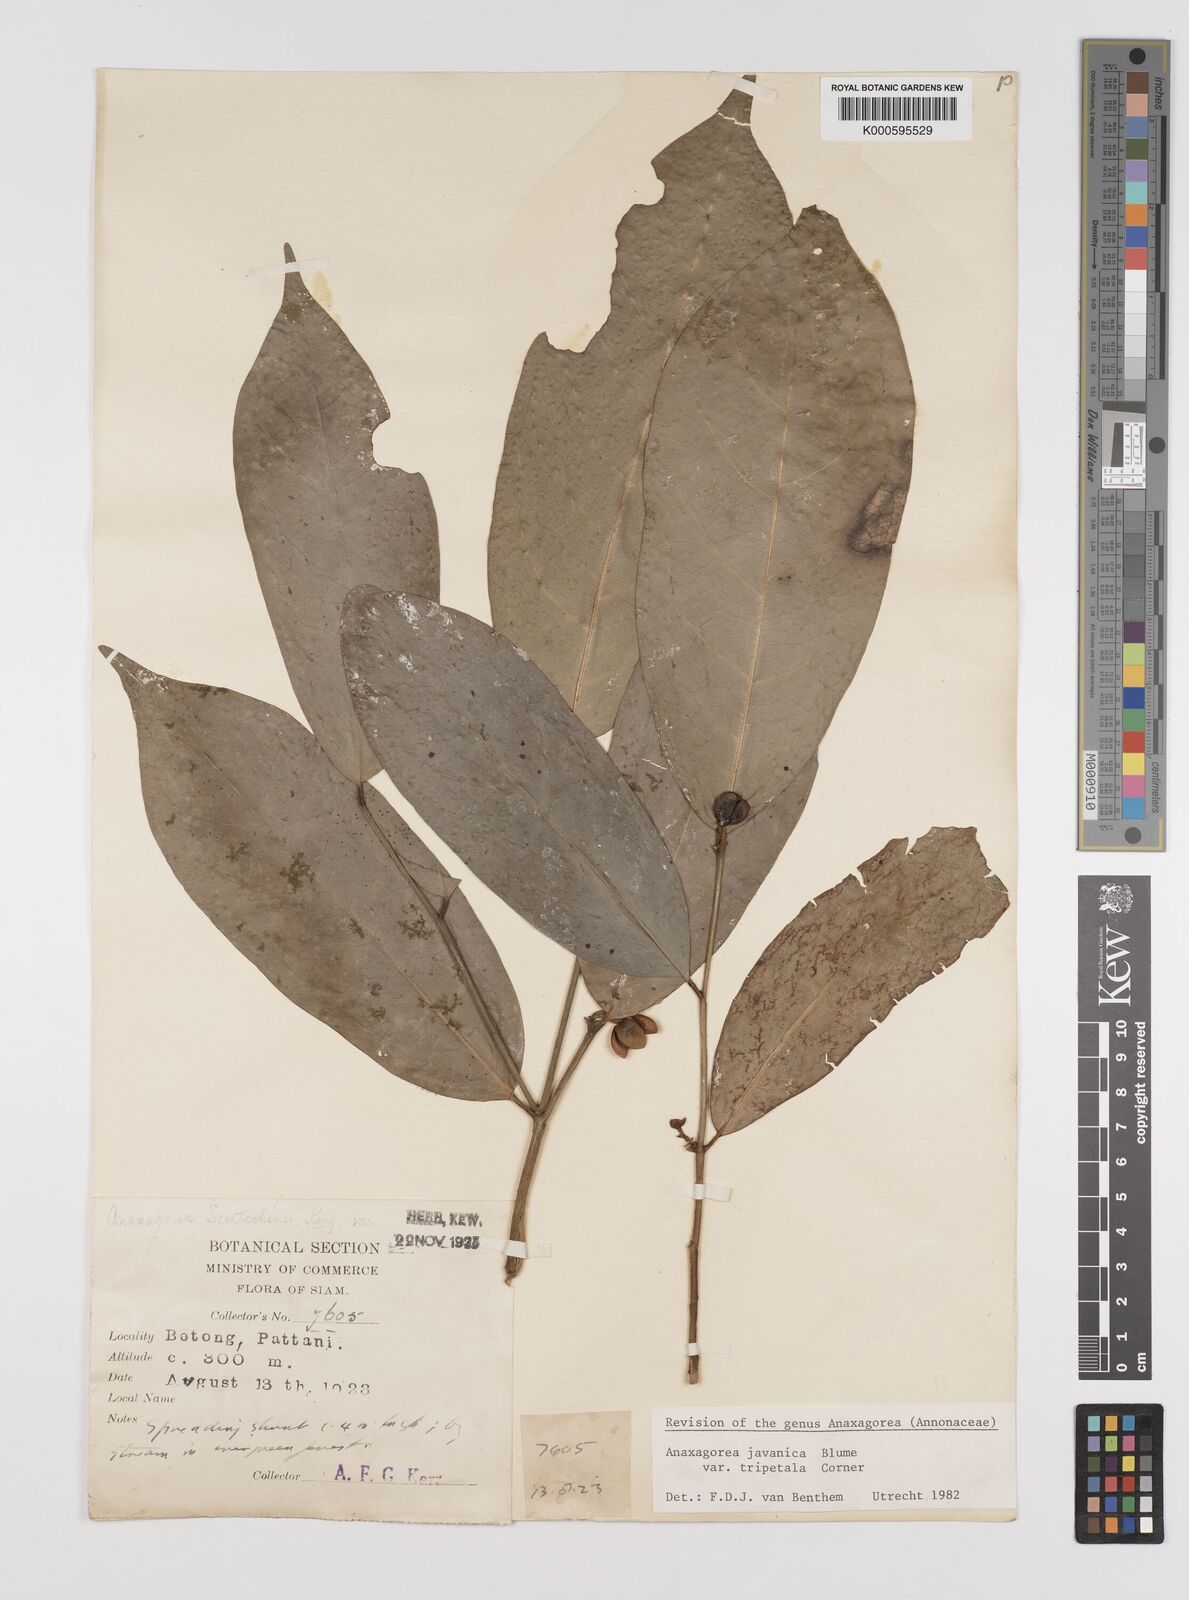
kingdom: Plantae
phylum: Tracheophyta
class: Magnoliopsida
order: Magnoliales
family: Annonaceae
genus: Anaxagorea
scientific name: Anaxagorea javanica
